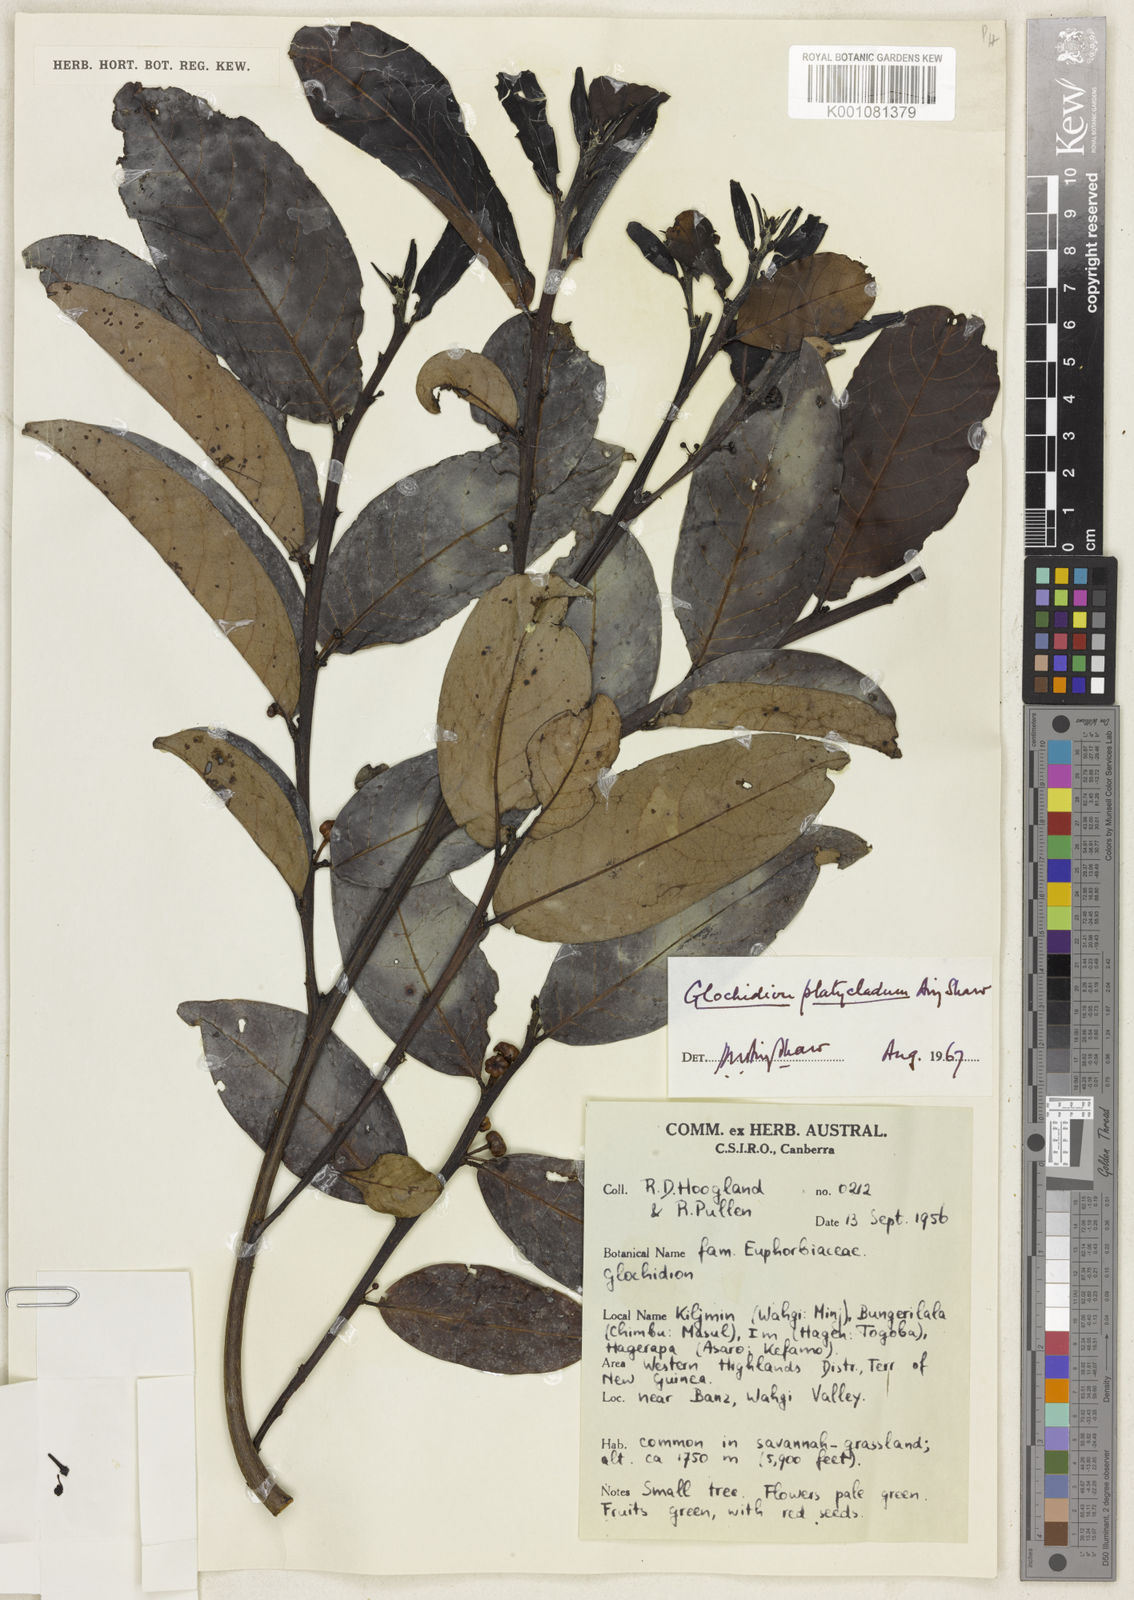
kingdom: Plantae
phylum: Tracheophyta
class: Magnoliopsida
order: Malpighiales
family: Phyllanthaceae
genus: Glochidion
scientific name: Glochidion novoguineense
